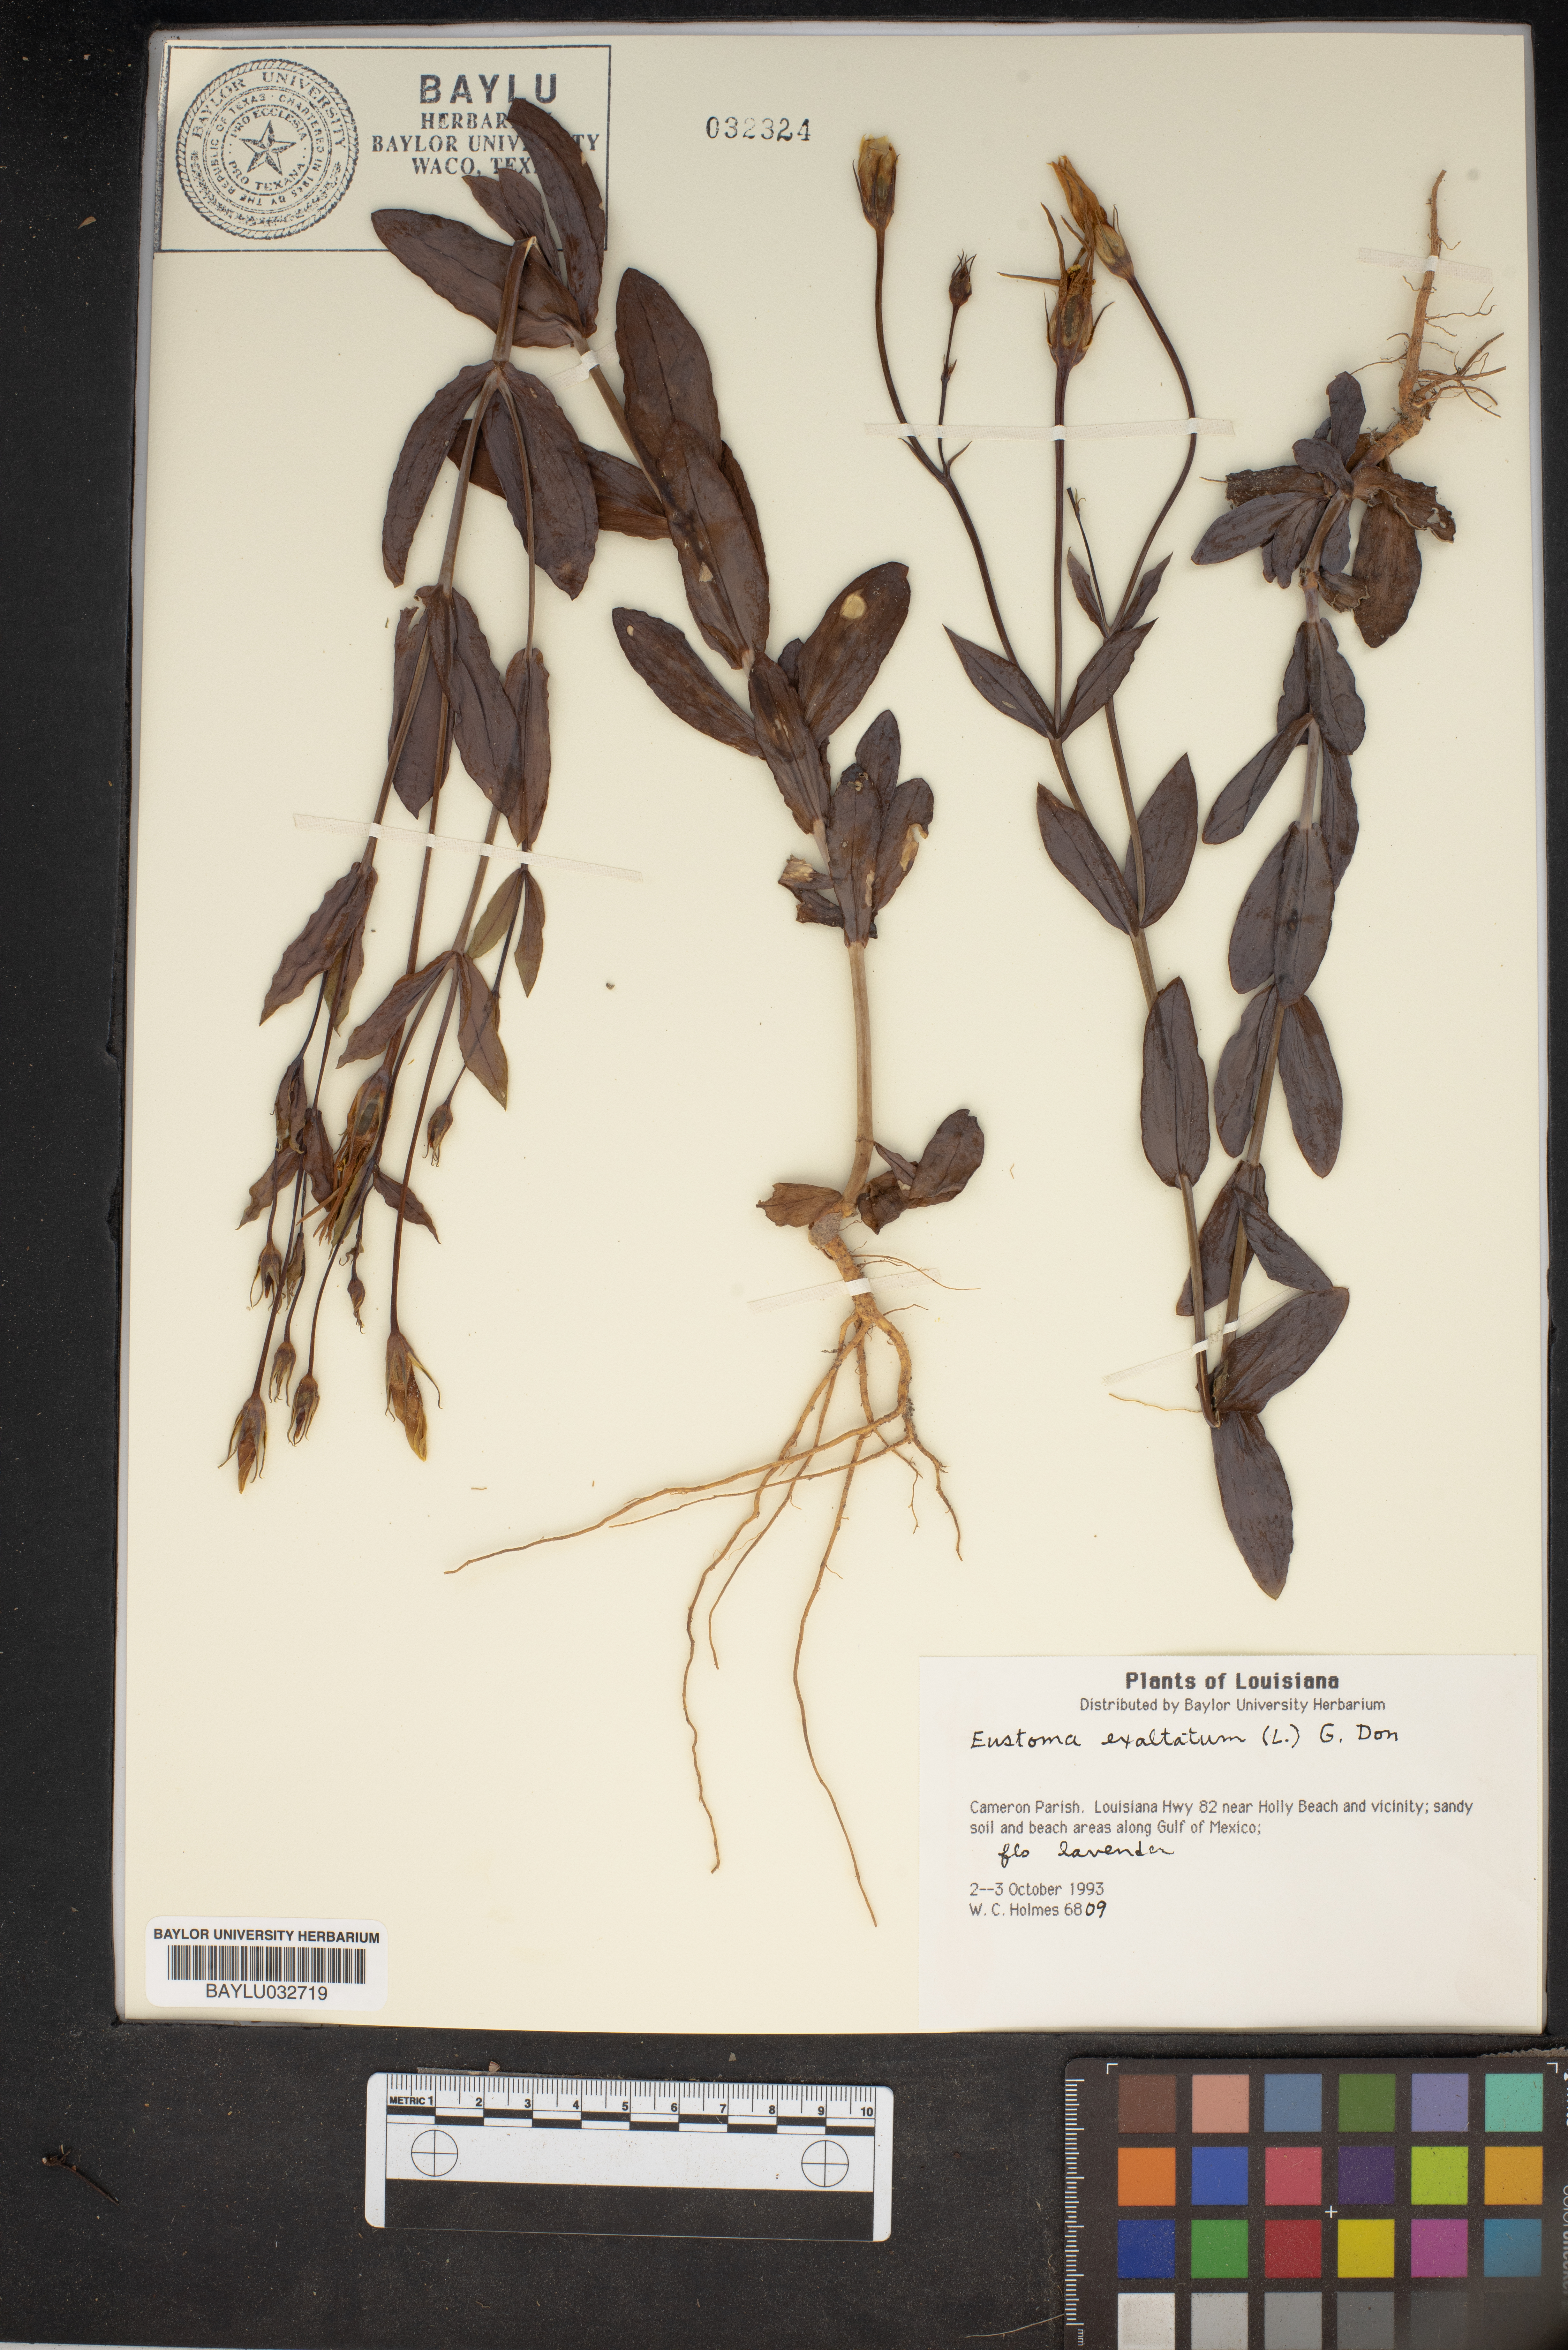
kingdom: Plantae
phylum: Tracheophyta
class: Magnoliopsida
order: Gentianales
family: Gentianaceae
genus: Eustoma
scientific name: Eustoma exaltatum
